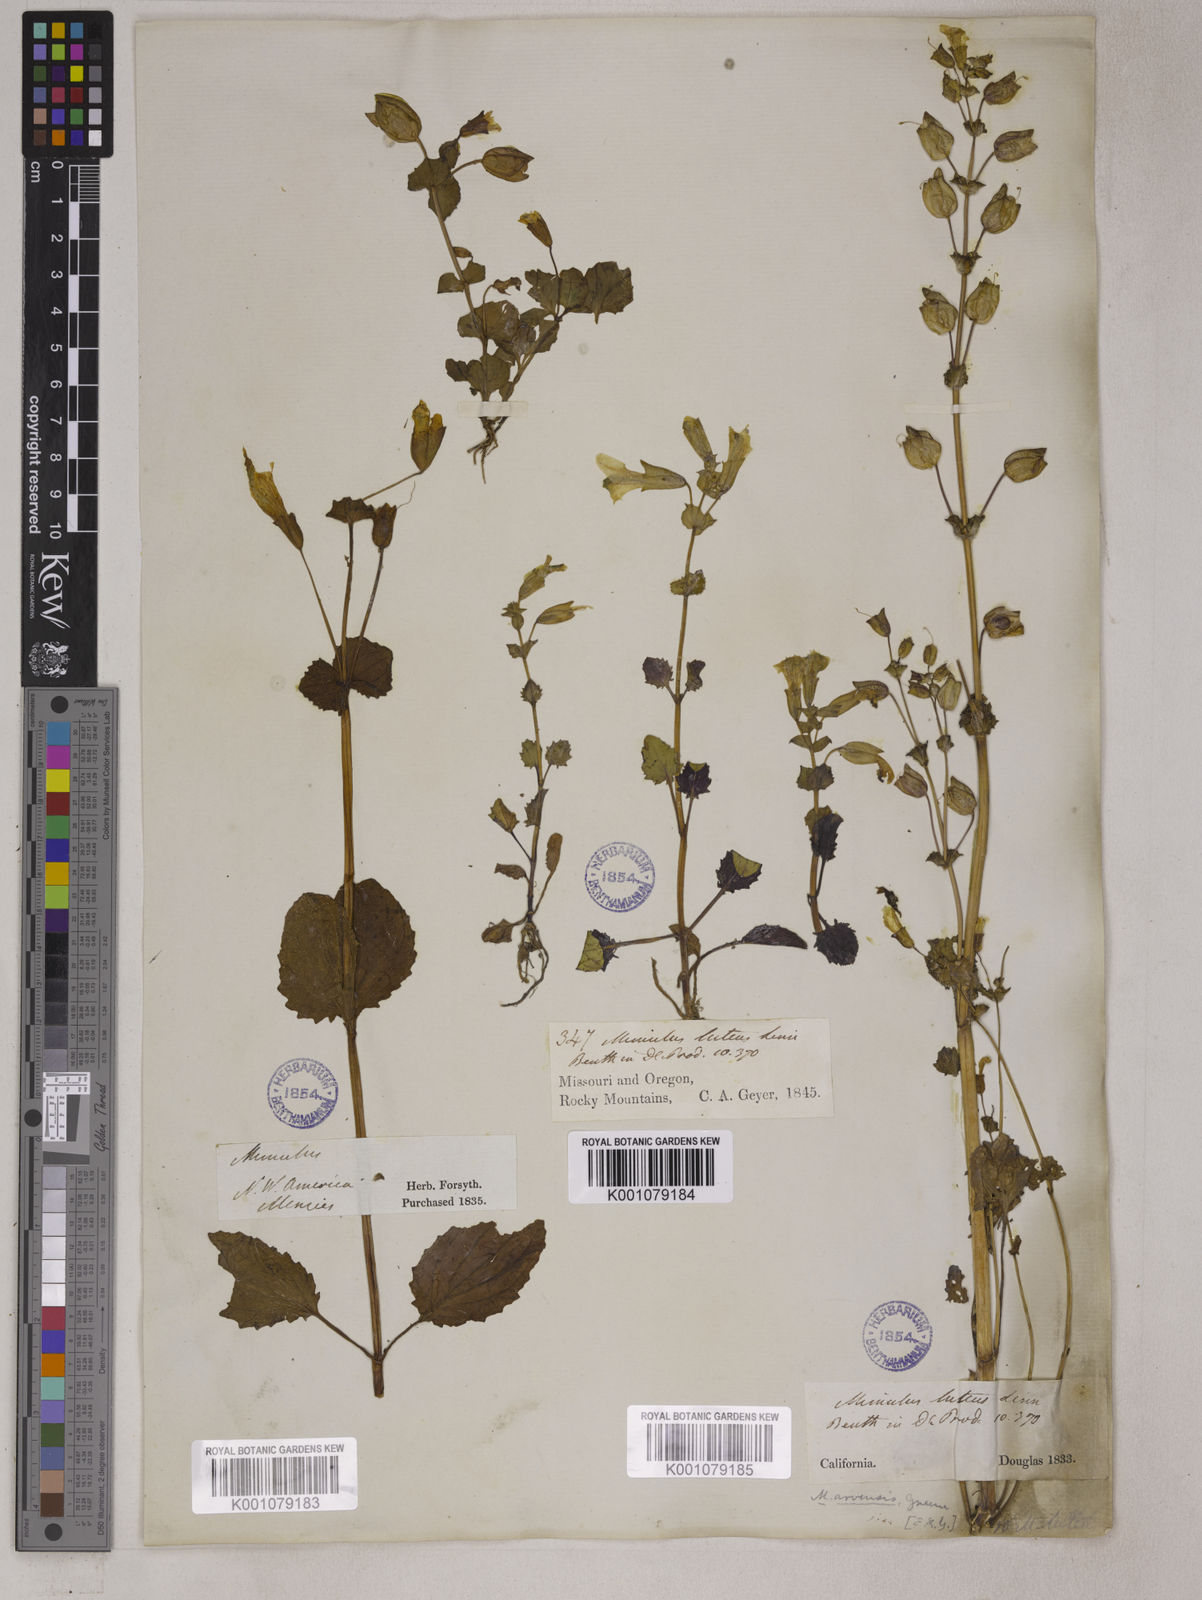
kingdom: Plantae
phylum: Tracheophyta
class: Magnoliopsida
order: Lamiales
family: Phrymaceae
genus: Erythranthe
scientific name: Erythranthe guttata
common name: Monkeyflower
